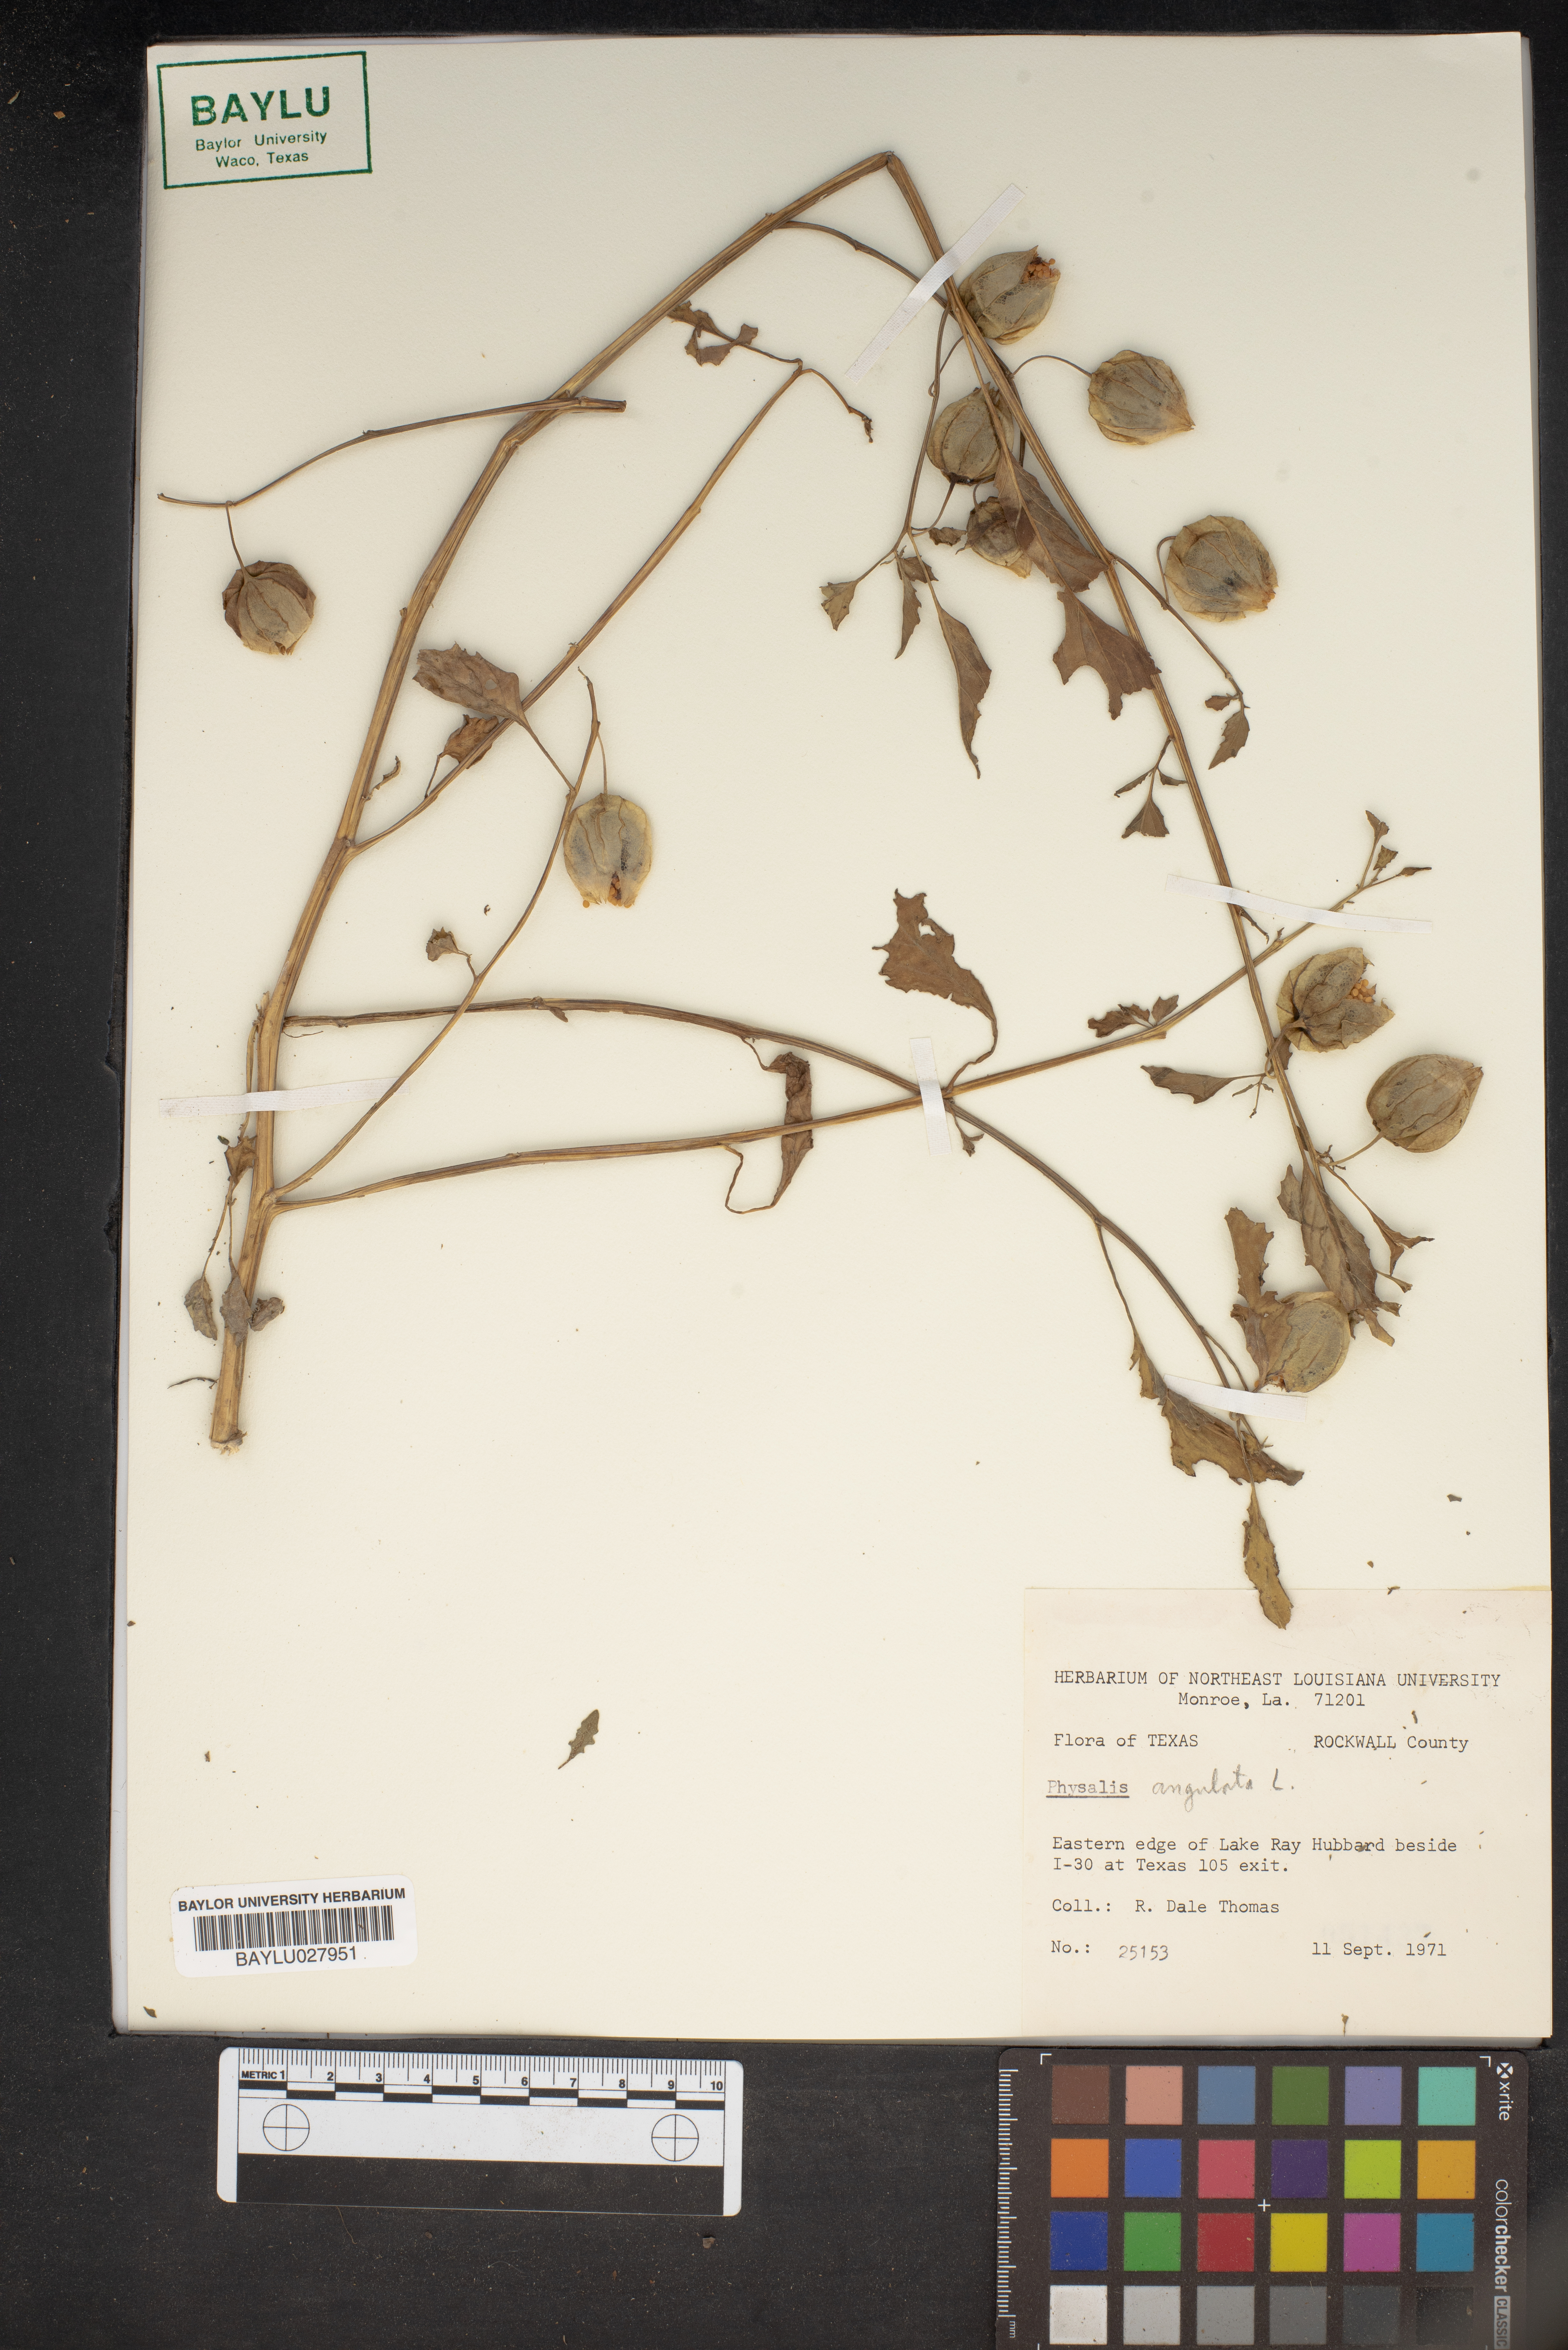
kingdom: Plantae
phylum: Tracheophyta
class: Magnoliopsida
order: Solanales
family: Solanaceae
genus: Physalis
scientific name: Physalis angulata
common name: Angular winter-cherry
